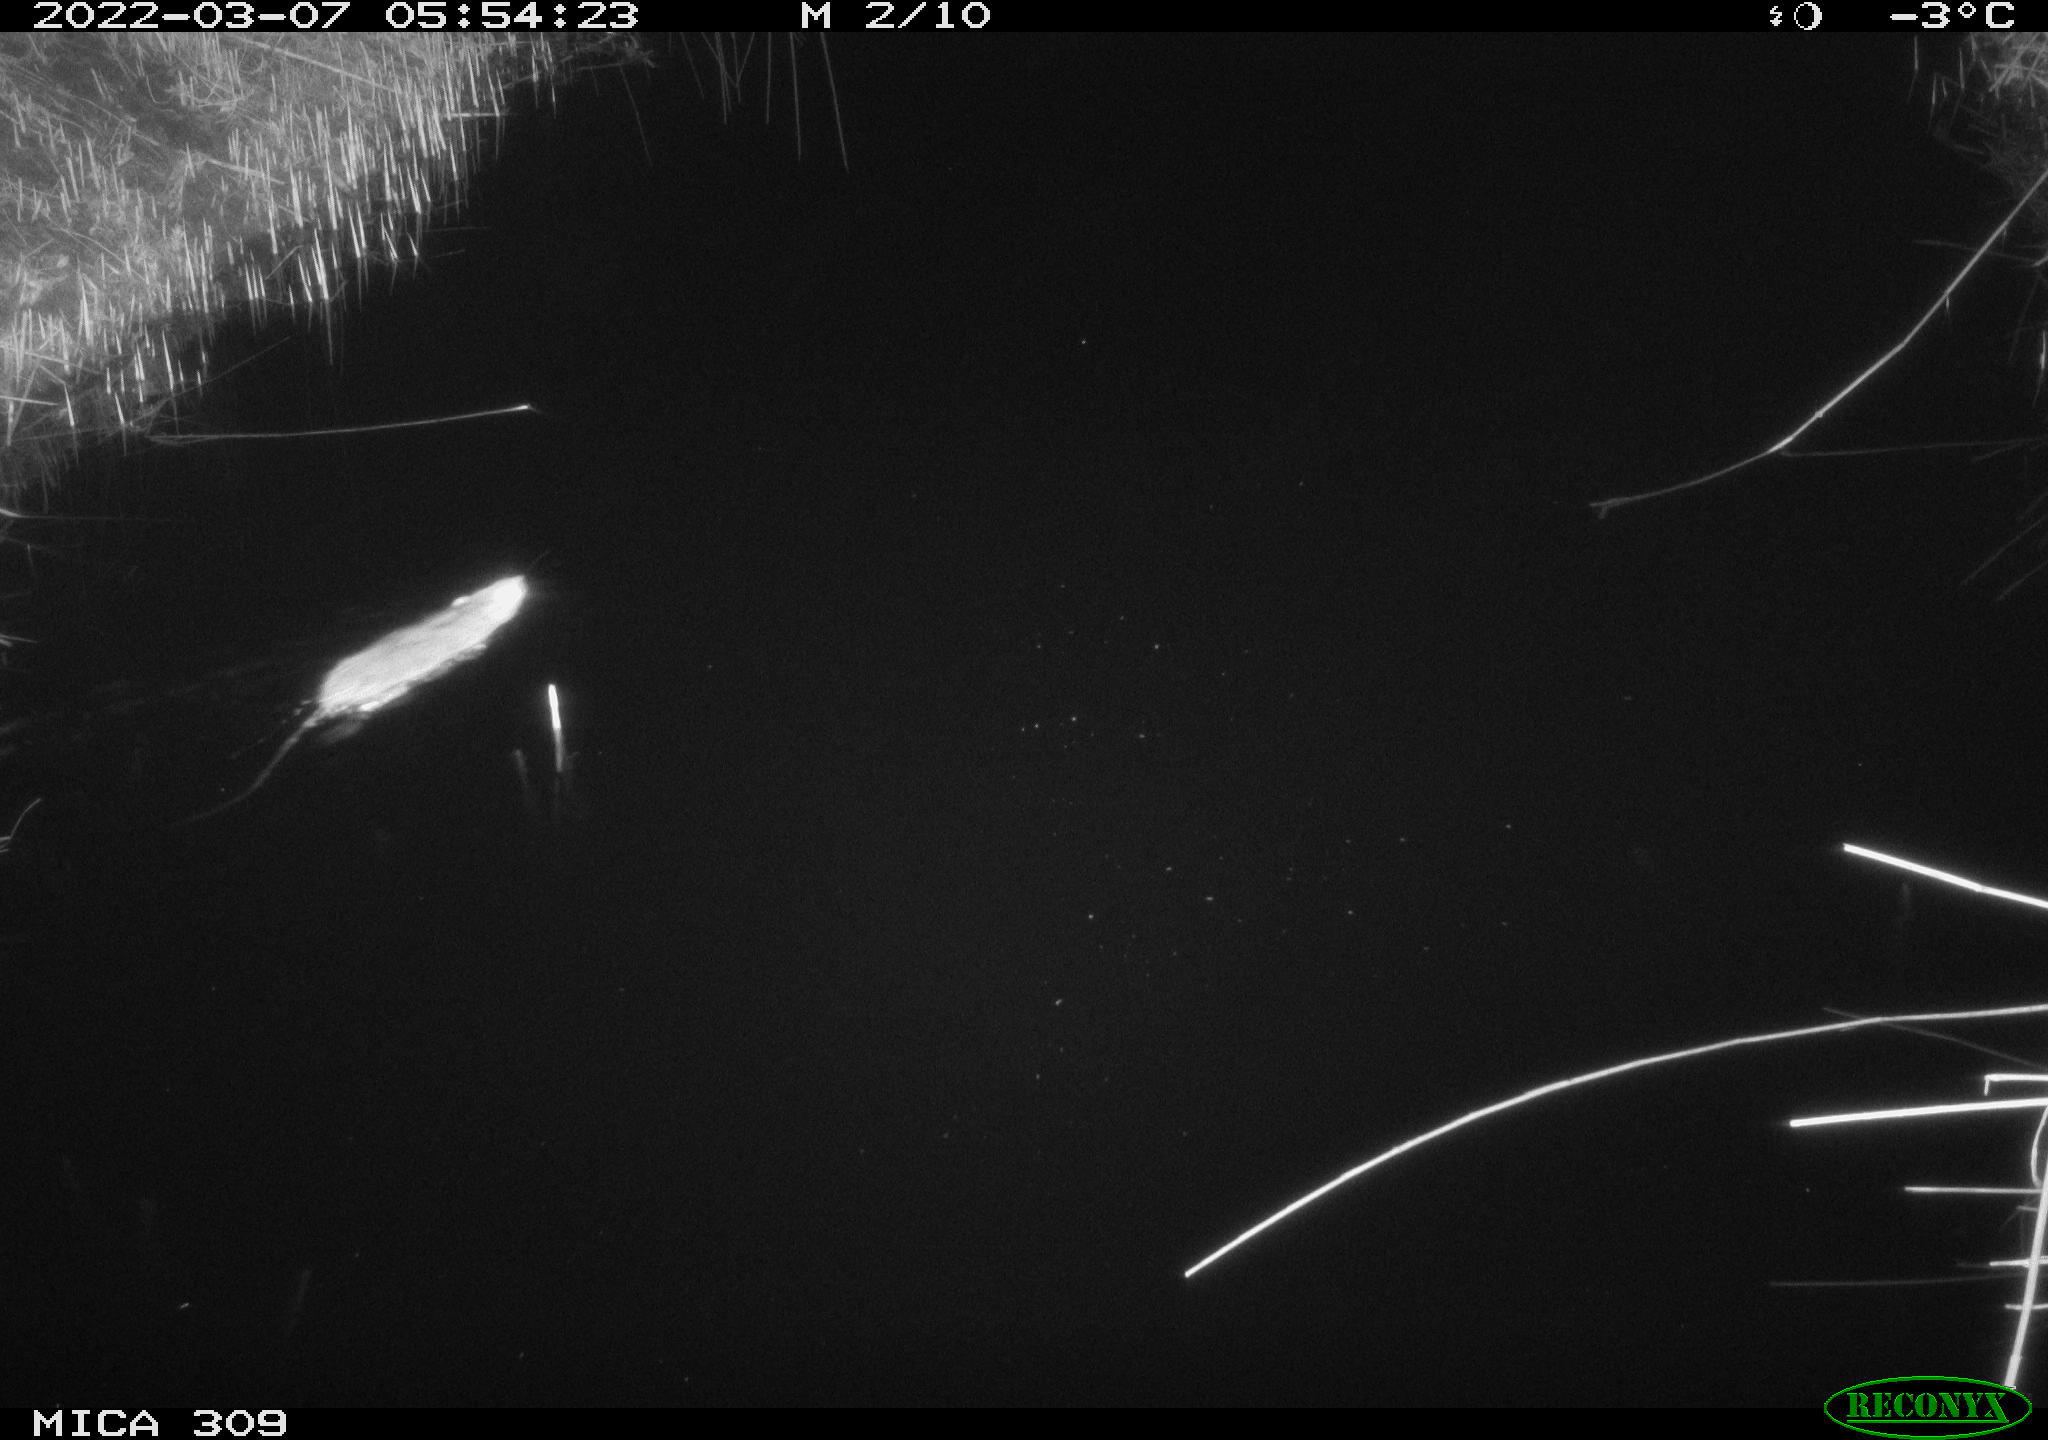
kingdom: Animalia
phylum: Chordata
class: Mammalia
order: Rodentia
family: Muridae
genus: Rattus
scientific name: Rattus norvegicus
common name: Brown rat
